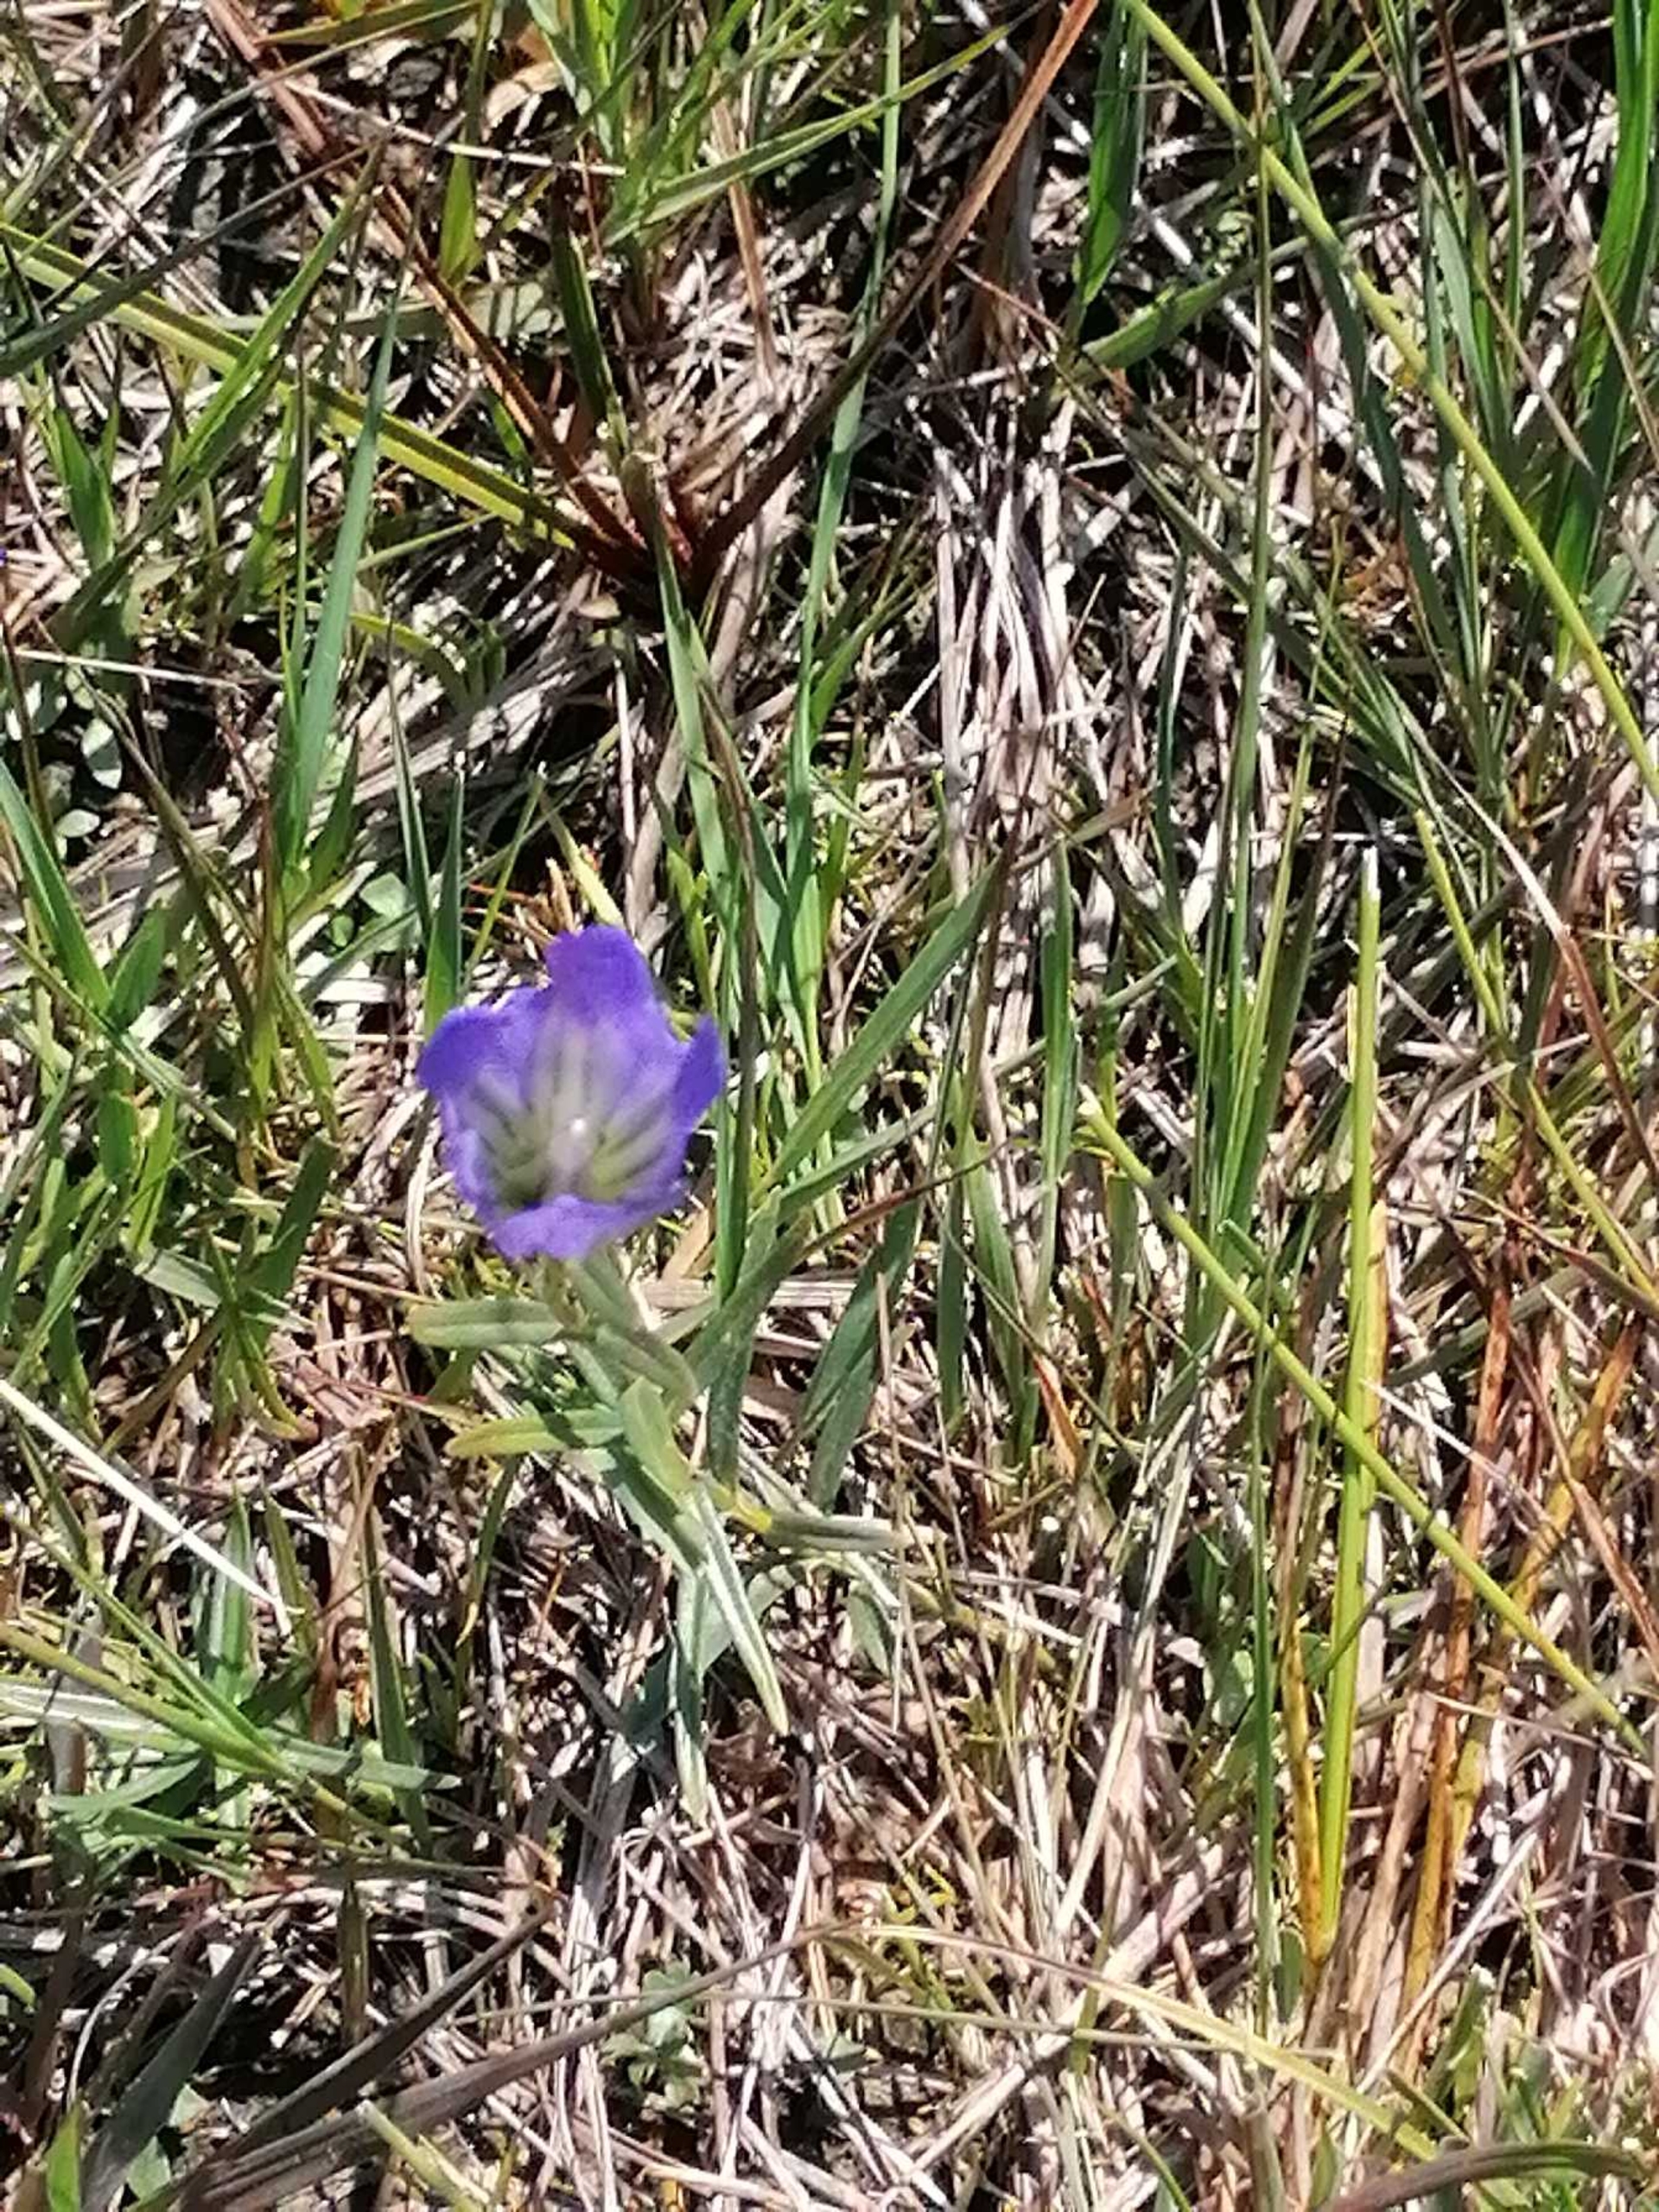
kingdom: Plantae
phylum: Tracheophyta
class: Magnoliopsida
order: Gentianales
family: Gentianaceae
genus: Gentiana
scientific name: Gentiana pneumonanthe
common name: Klokke-ensian
